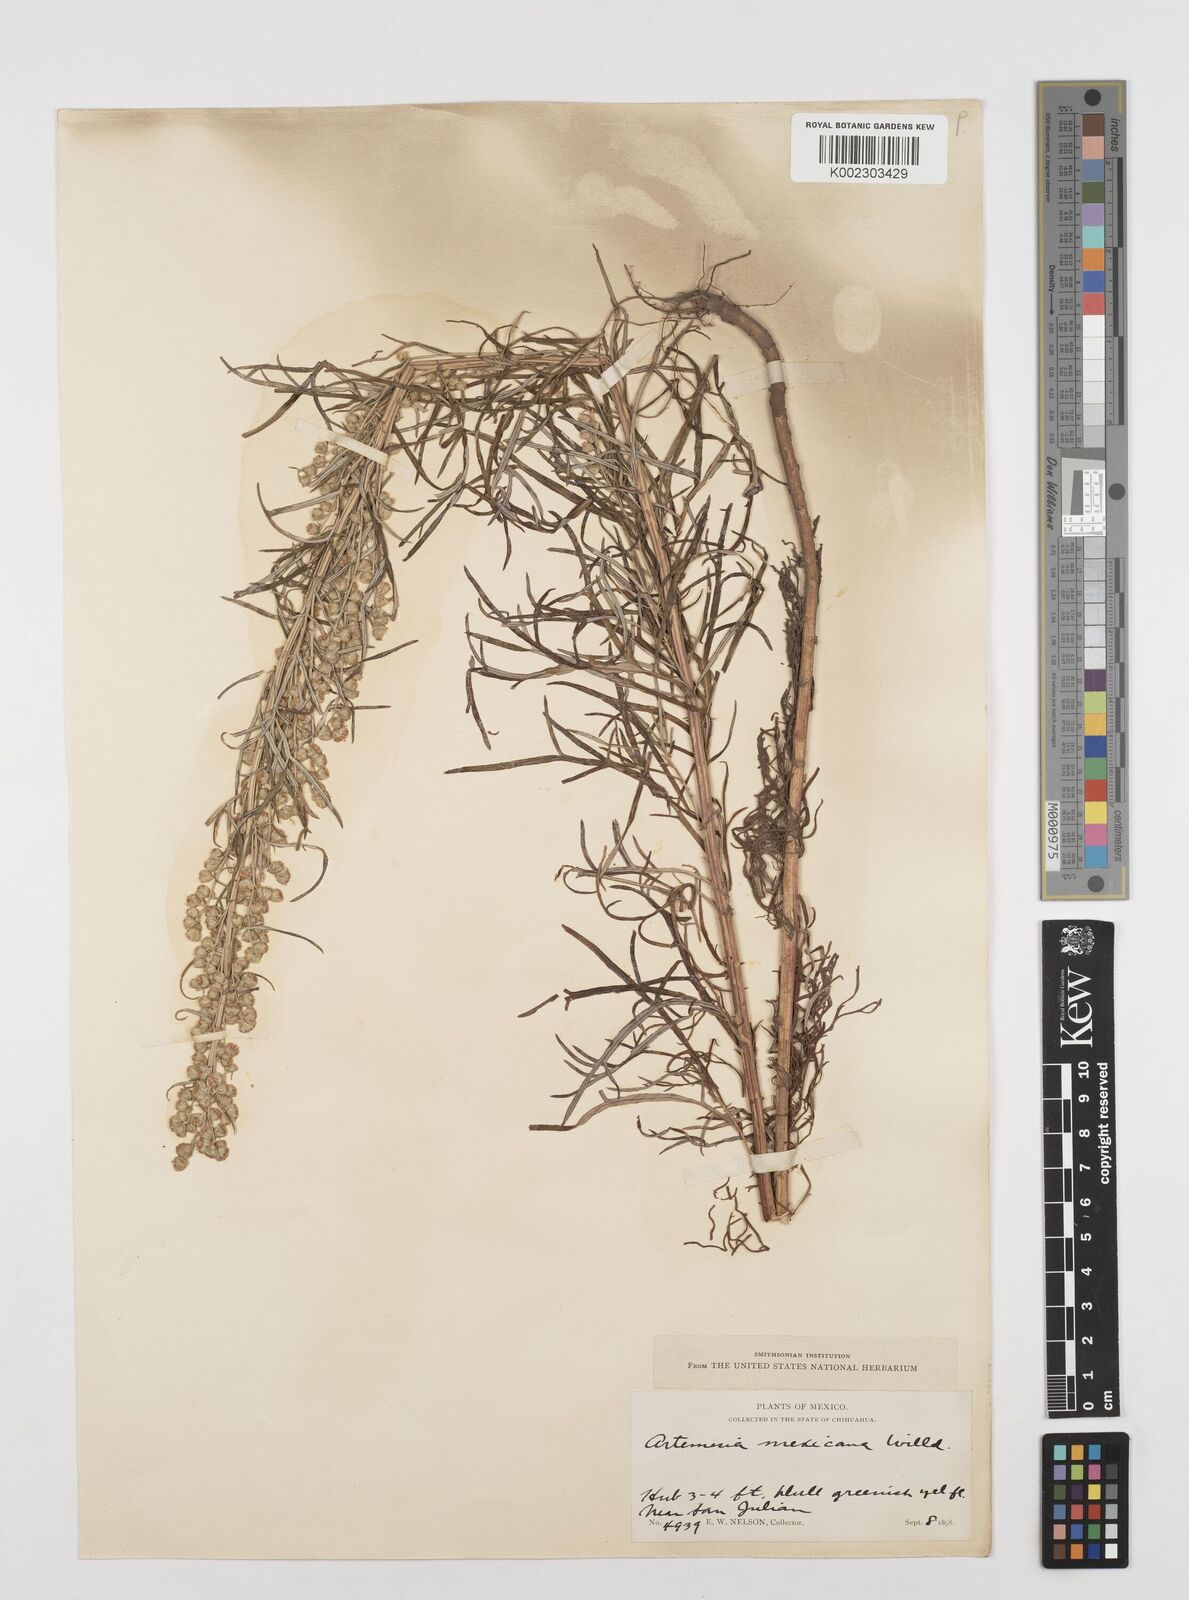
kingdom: Plantae
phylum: Tracheophyta
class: Magnoliopsida
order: Asterales
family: Asteraceae
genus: Artemisia
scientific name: Artemisia ludoviciana
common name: Western mugwort
